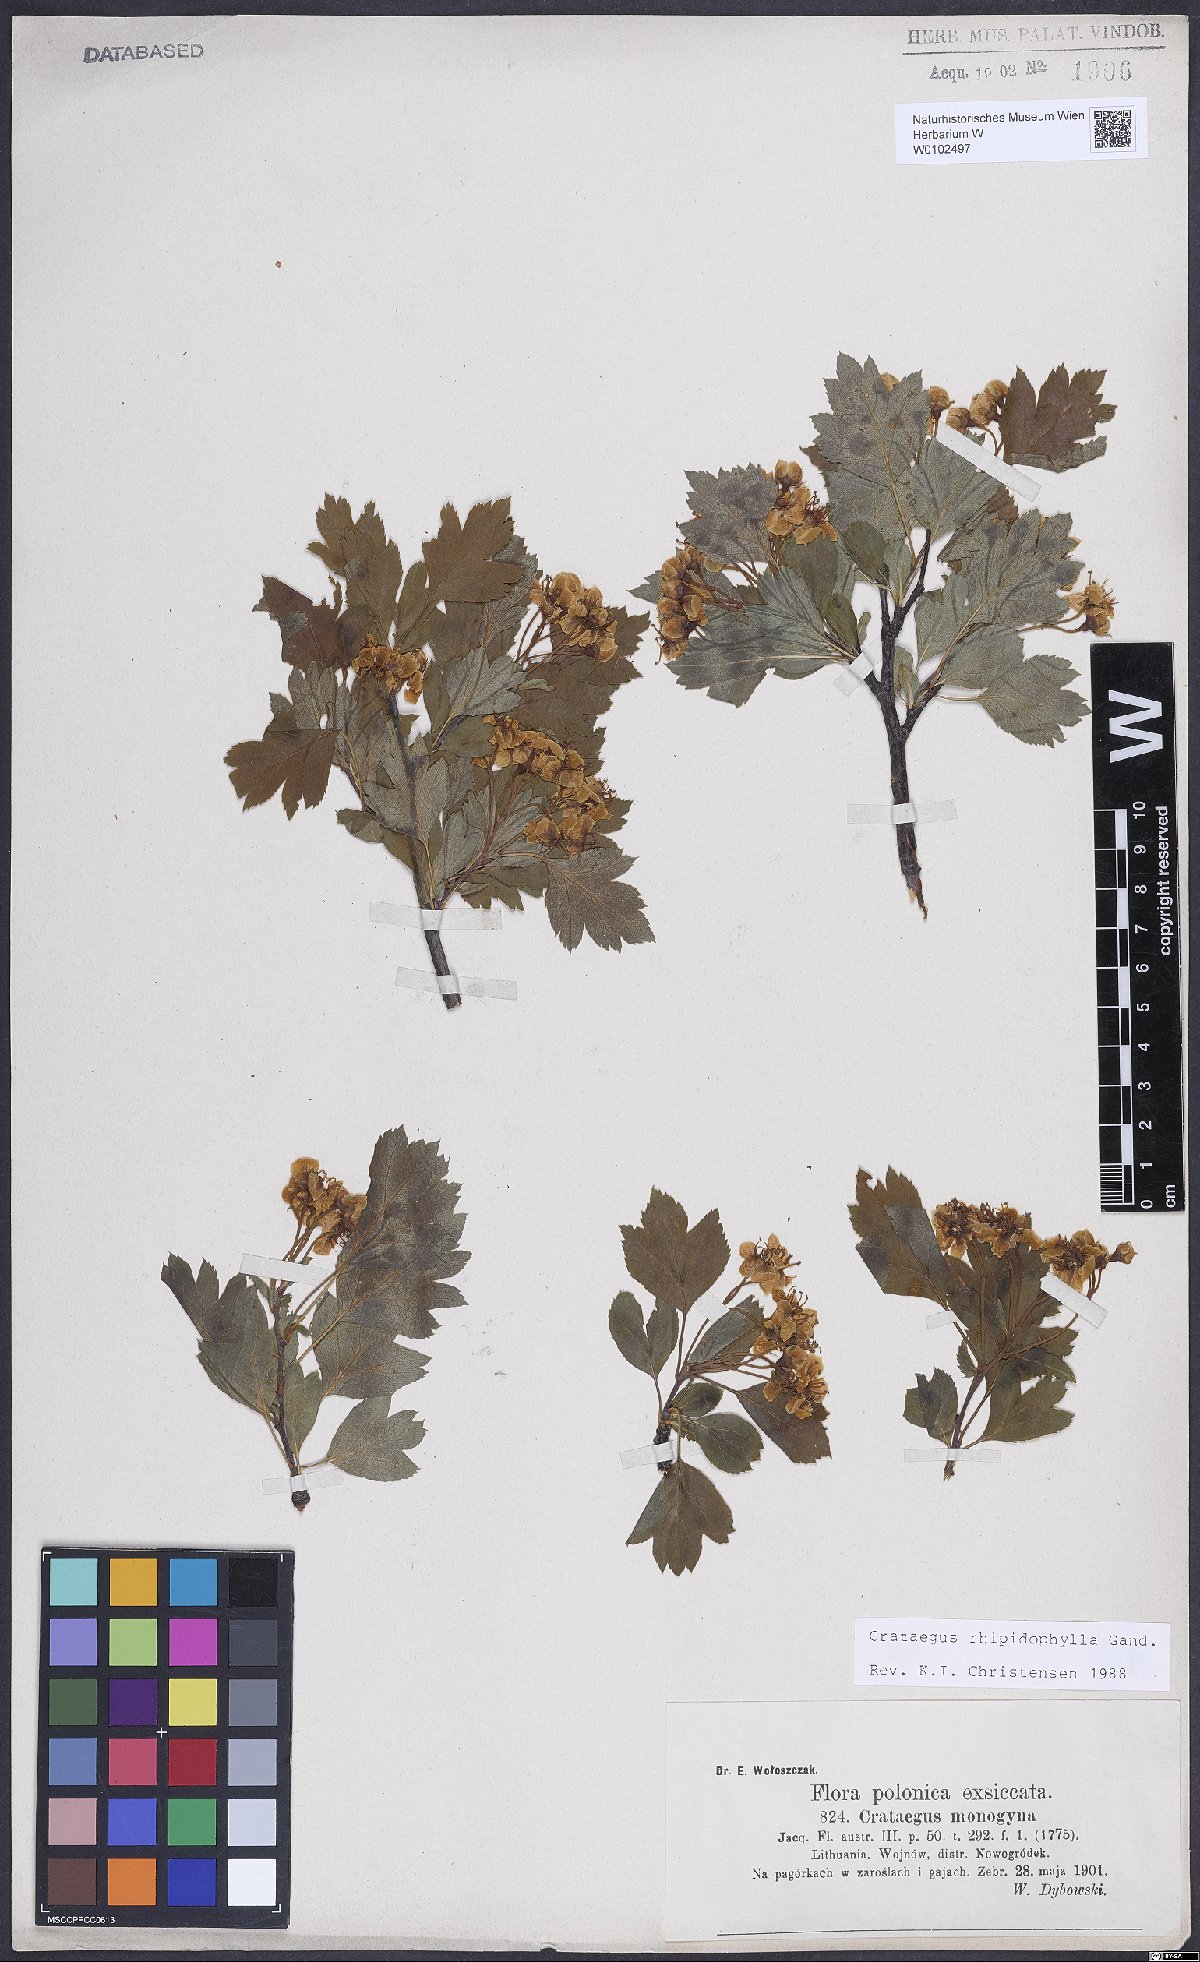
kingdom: Plantae
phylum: Tracheophyta
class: Magnoliopsida
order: Rosales
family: Rosaceae
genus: Crataegus
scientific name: Crataegus rhipidophylla
